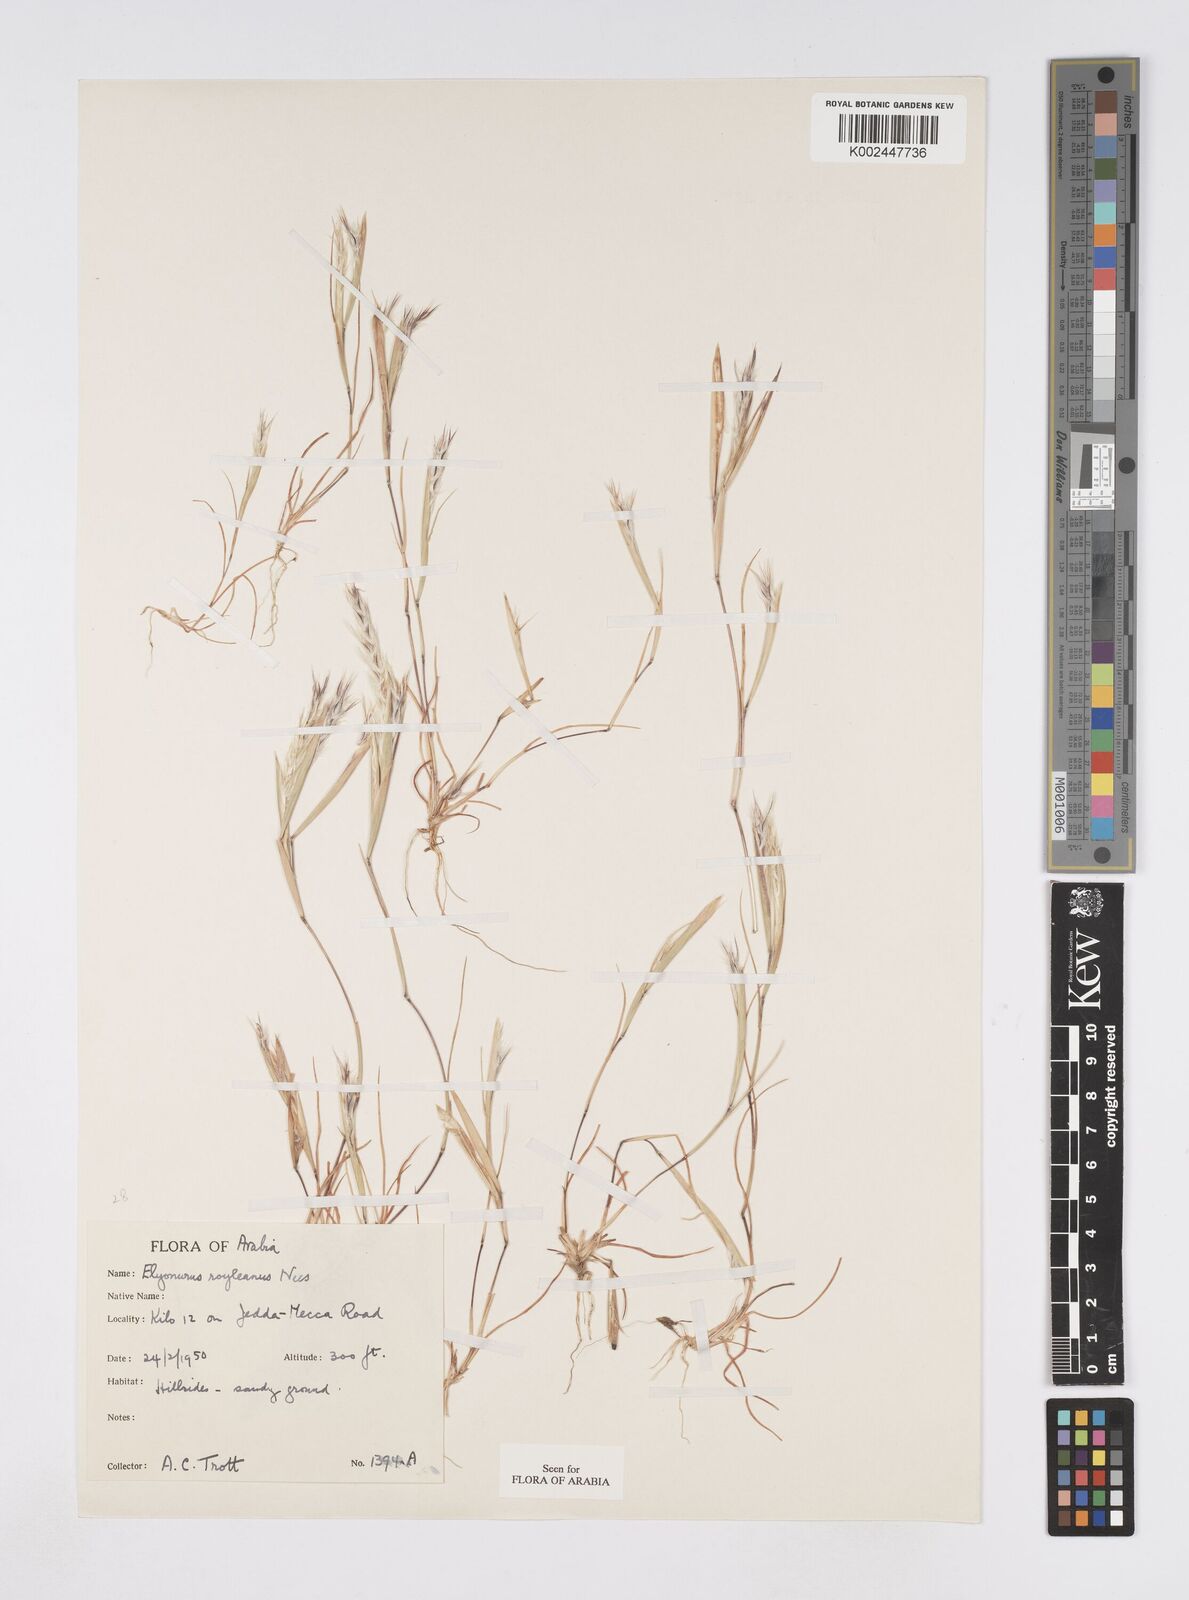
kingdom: Plantae
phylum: Tracheophyta
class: Liliopsida
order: Poales
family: Poaceae
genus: Elionurus
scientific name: Elionurus royleanus
